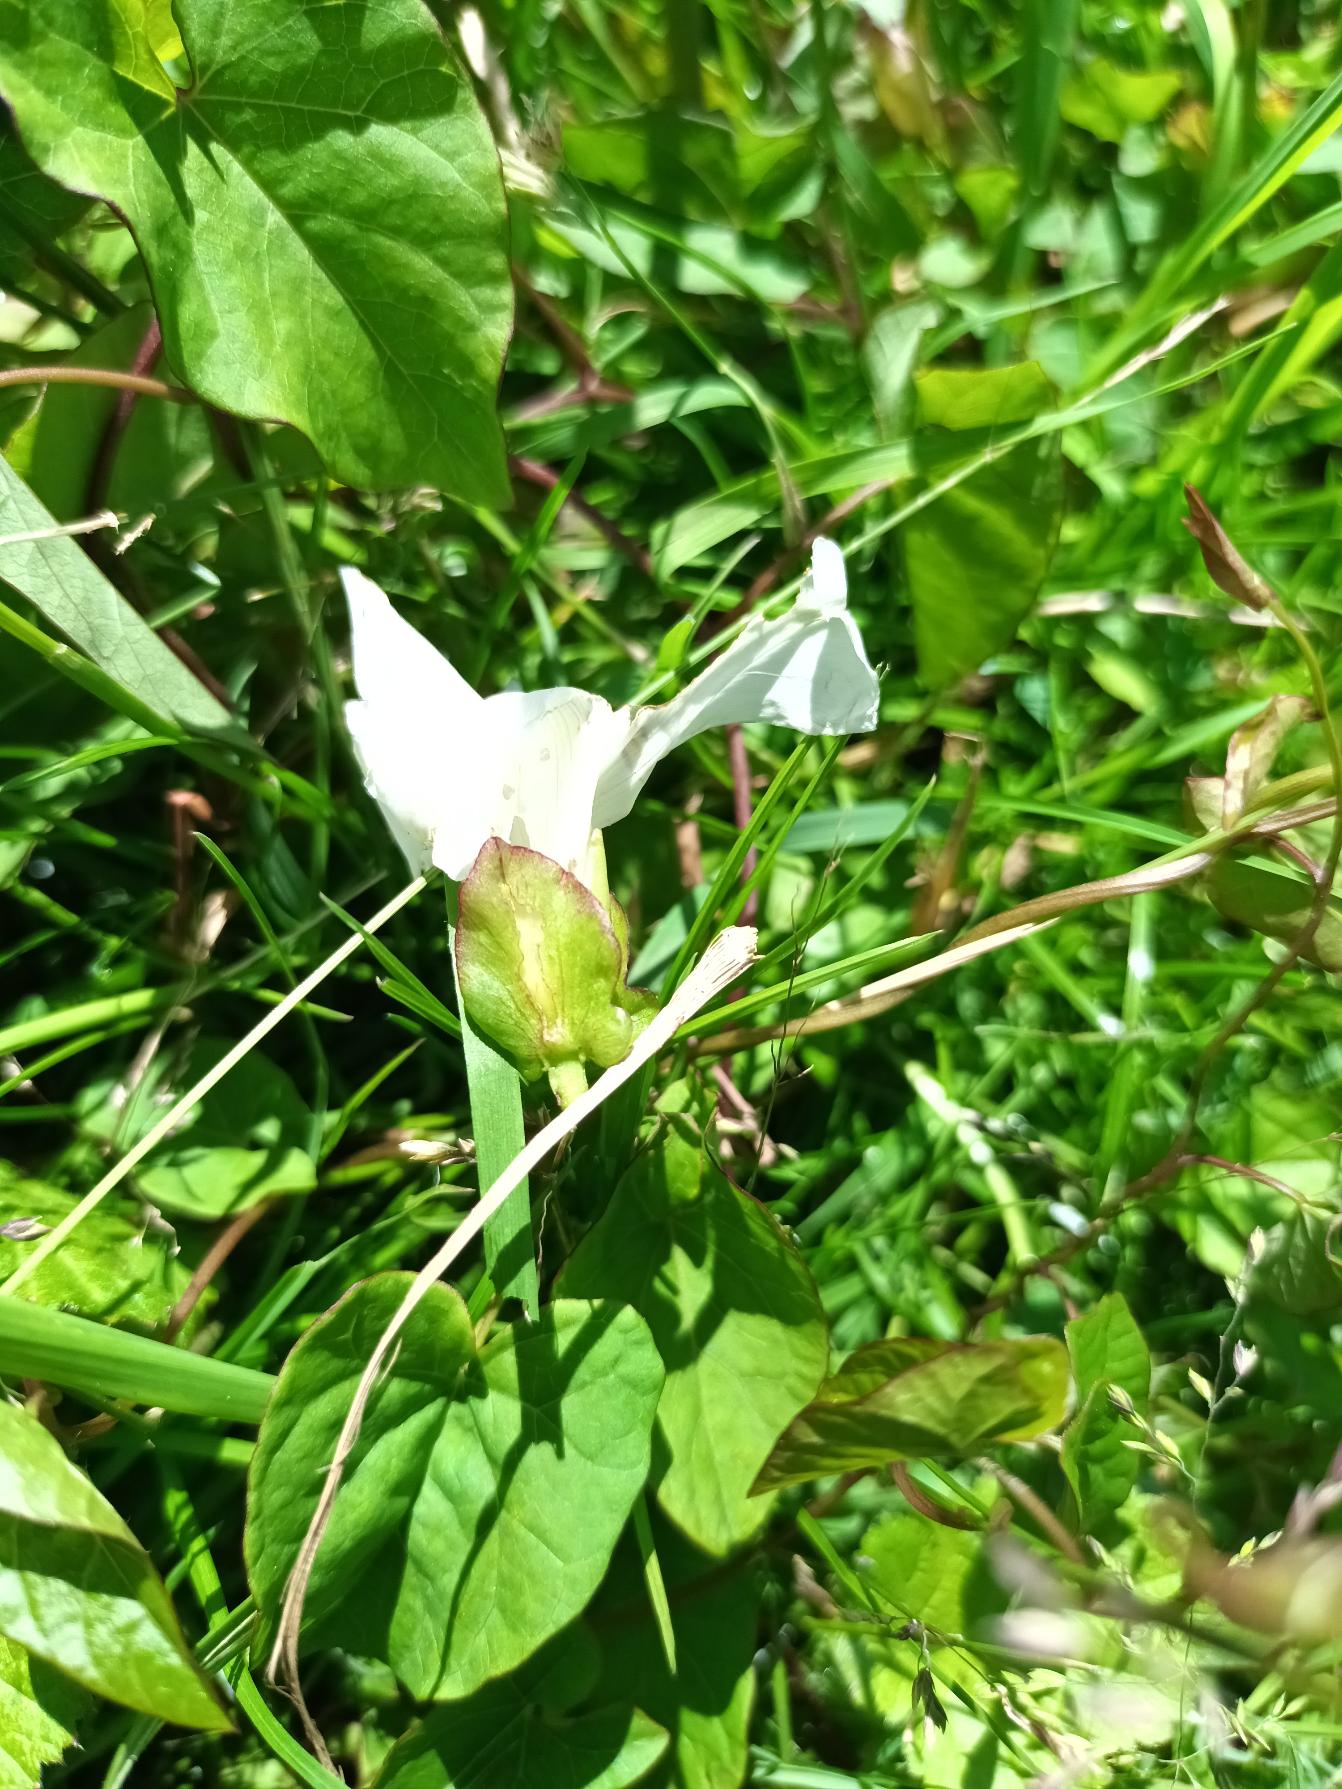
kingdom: Plantae
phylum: Tracheophyta
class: Magnoliopsida
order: Solanales
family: Convolvulaceae
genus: Calystegia
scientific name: Calystegia sepium
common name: Gærde-snerle
